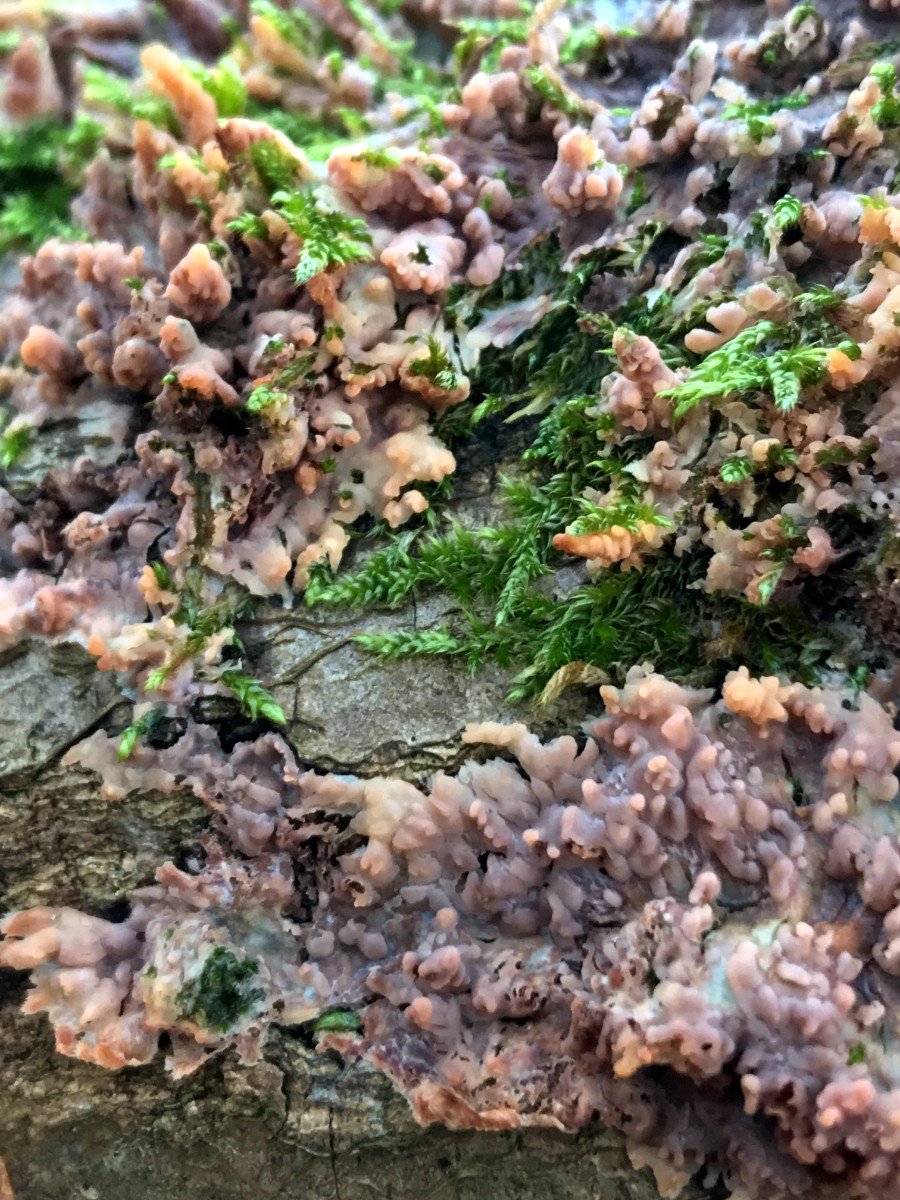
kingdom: Fungi
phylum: Basidiomycota
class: Agaricomycetes
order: Polyporales
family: Meruliaceae
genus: Phlebia
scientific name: Phlebia radiata
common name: stråle-åresvamp
